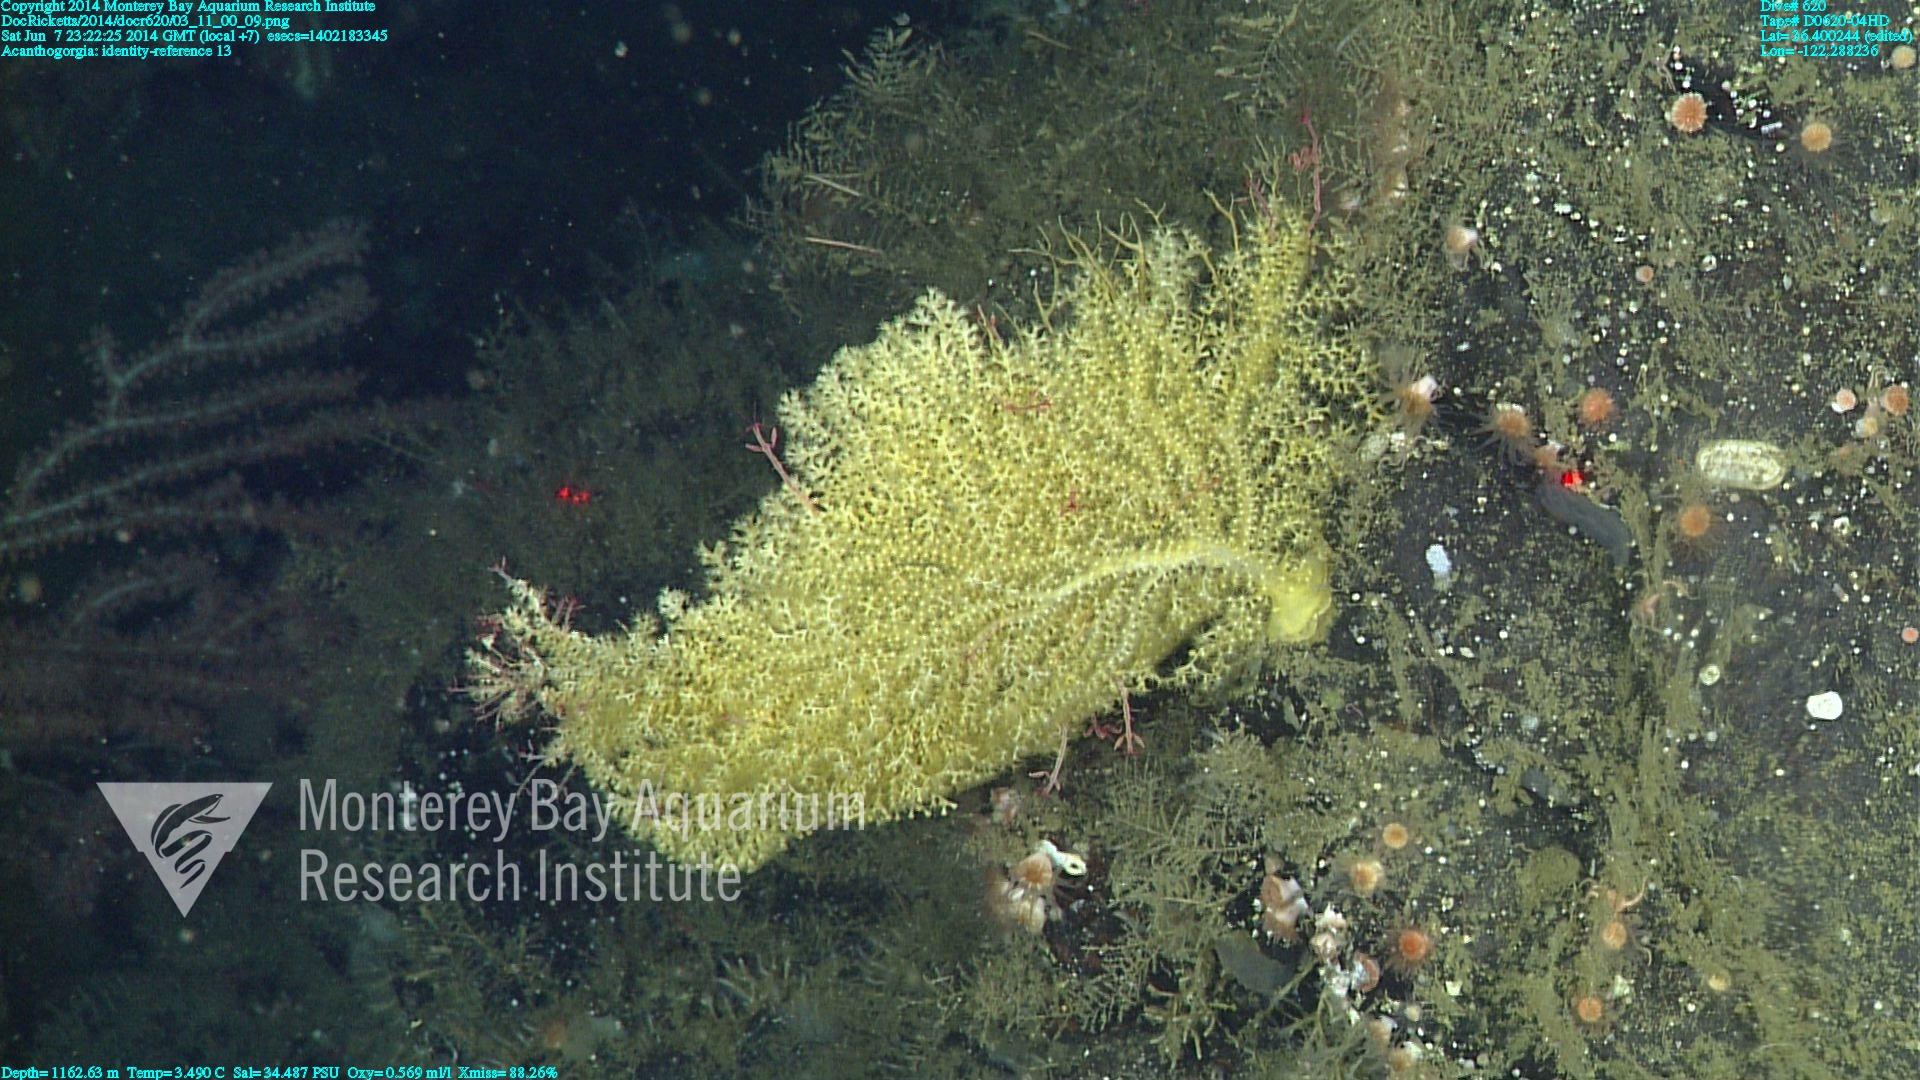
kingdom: Animalia
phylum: Cnidaria
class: Anthozoa
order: Malacalcyonacea
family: Paramuriceidae
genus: Acanthogorgia
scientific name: Acanthogorgia
